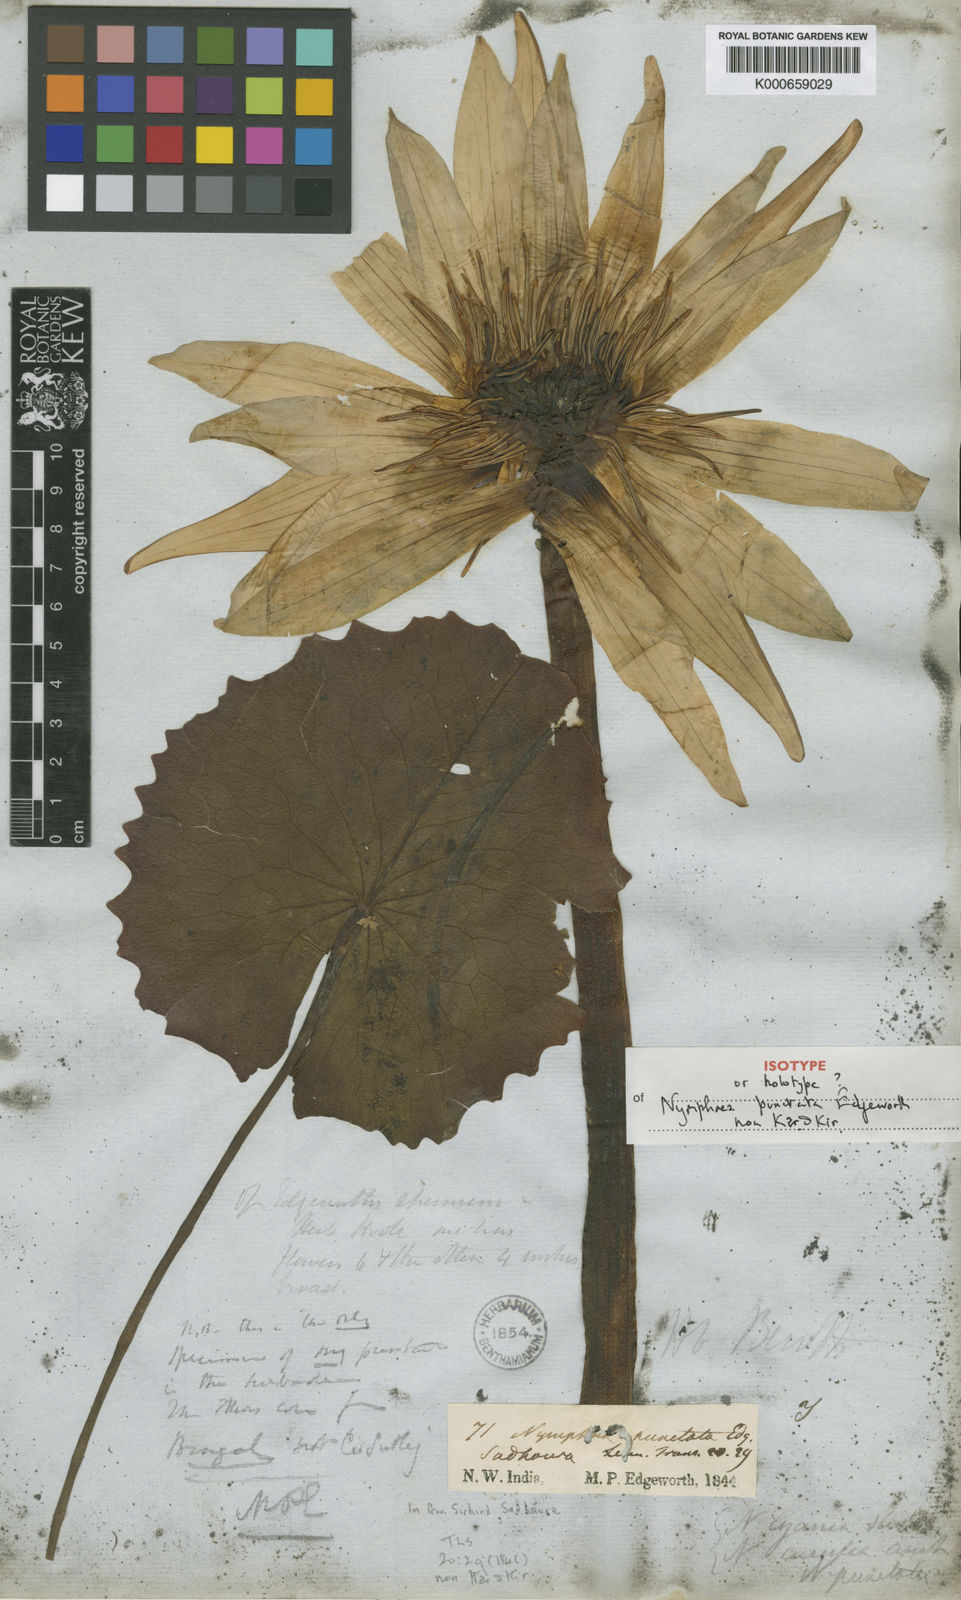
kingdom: Plantae
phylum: Tracheophyta
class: Magnoliopsida
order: Nymphaeales
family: Nymphaeaceae
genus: Nymphaea
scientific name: Nymphaea nouchali
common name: Blue lotus
